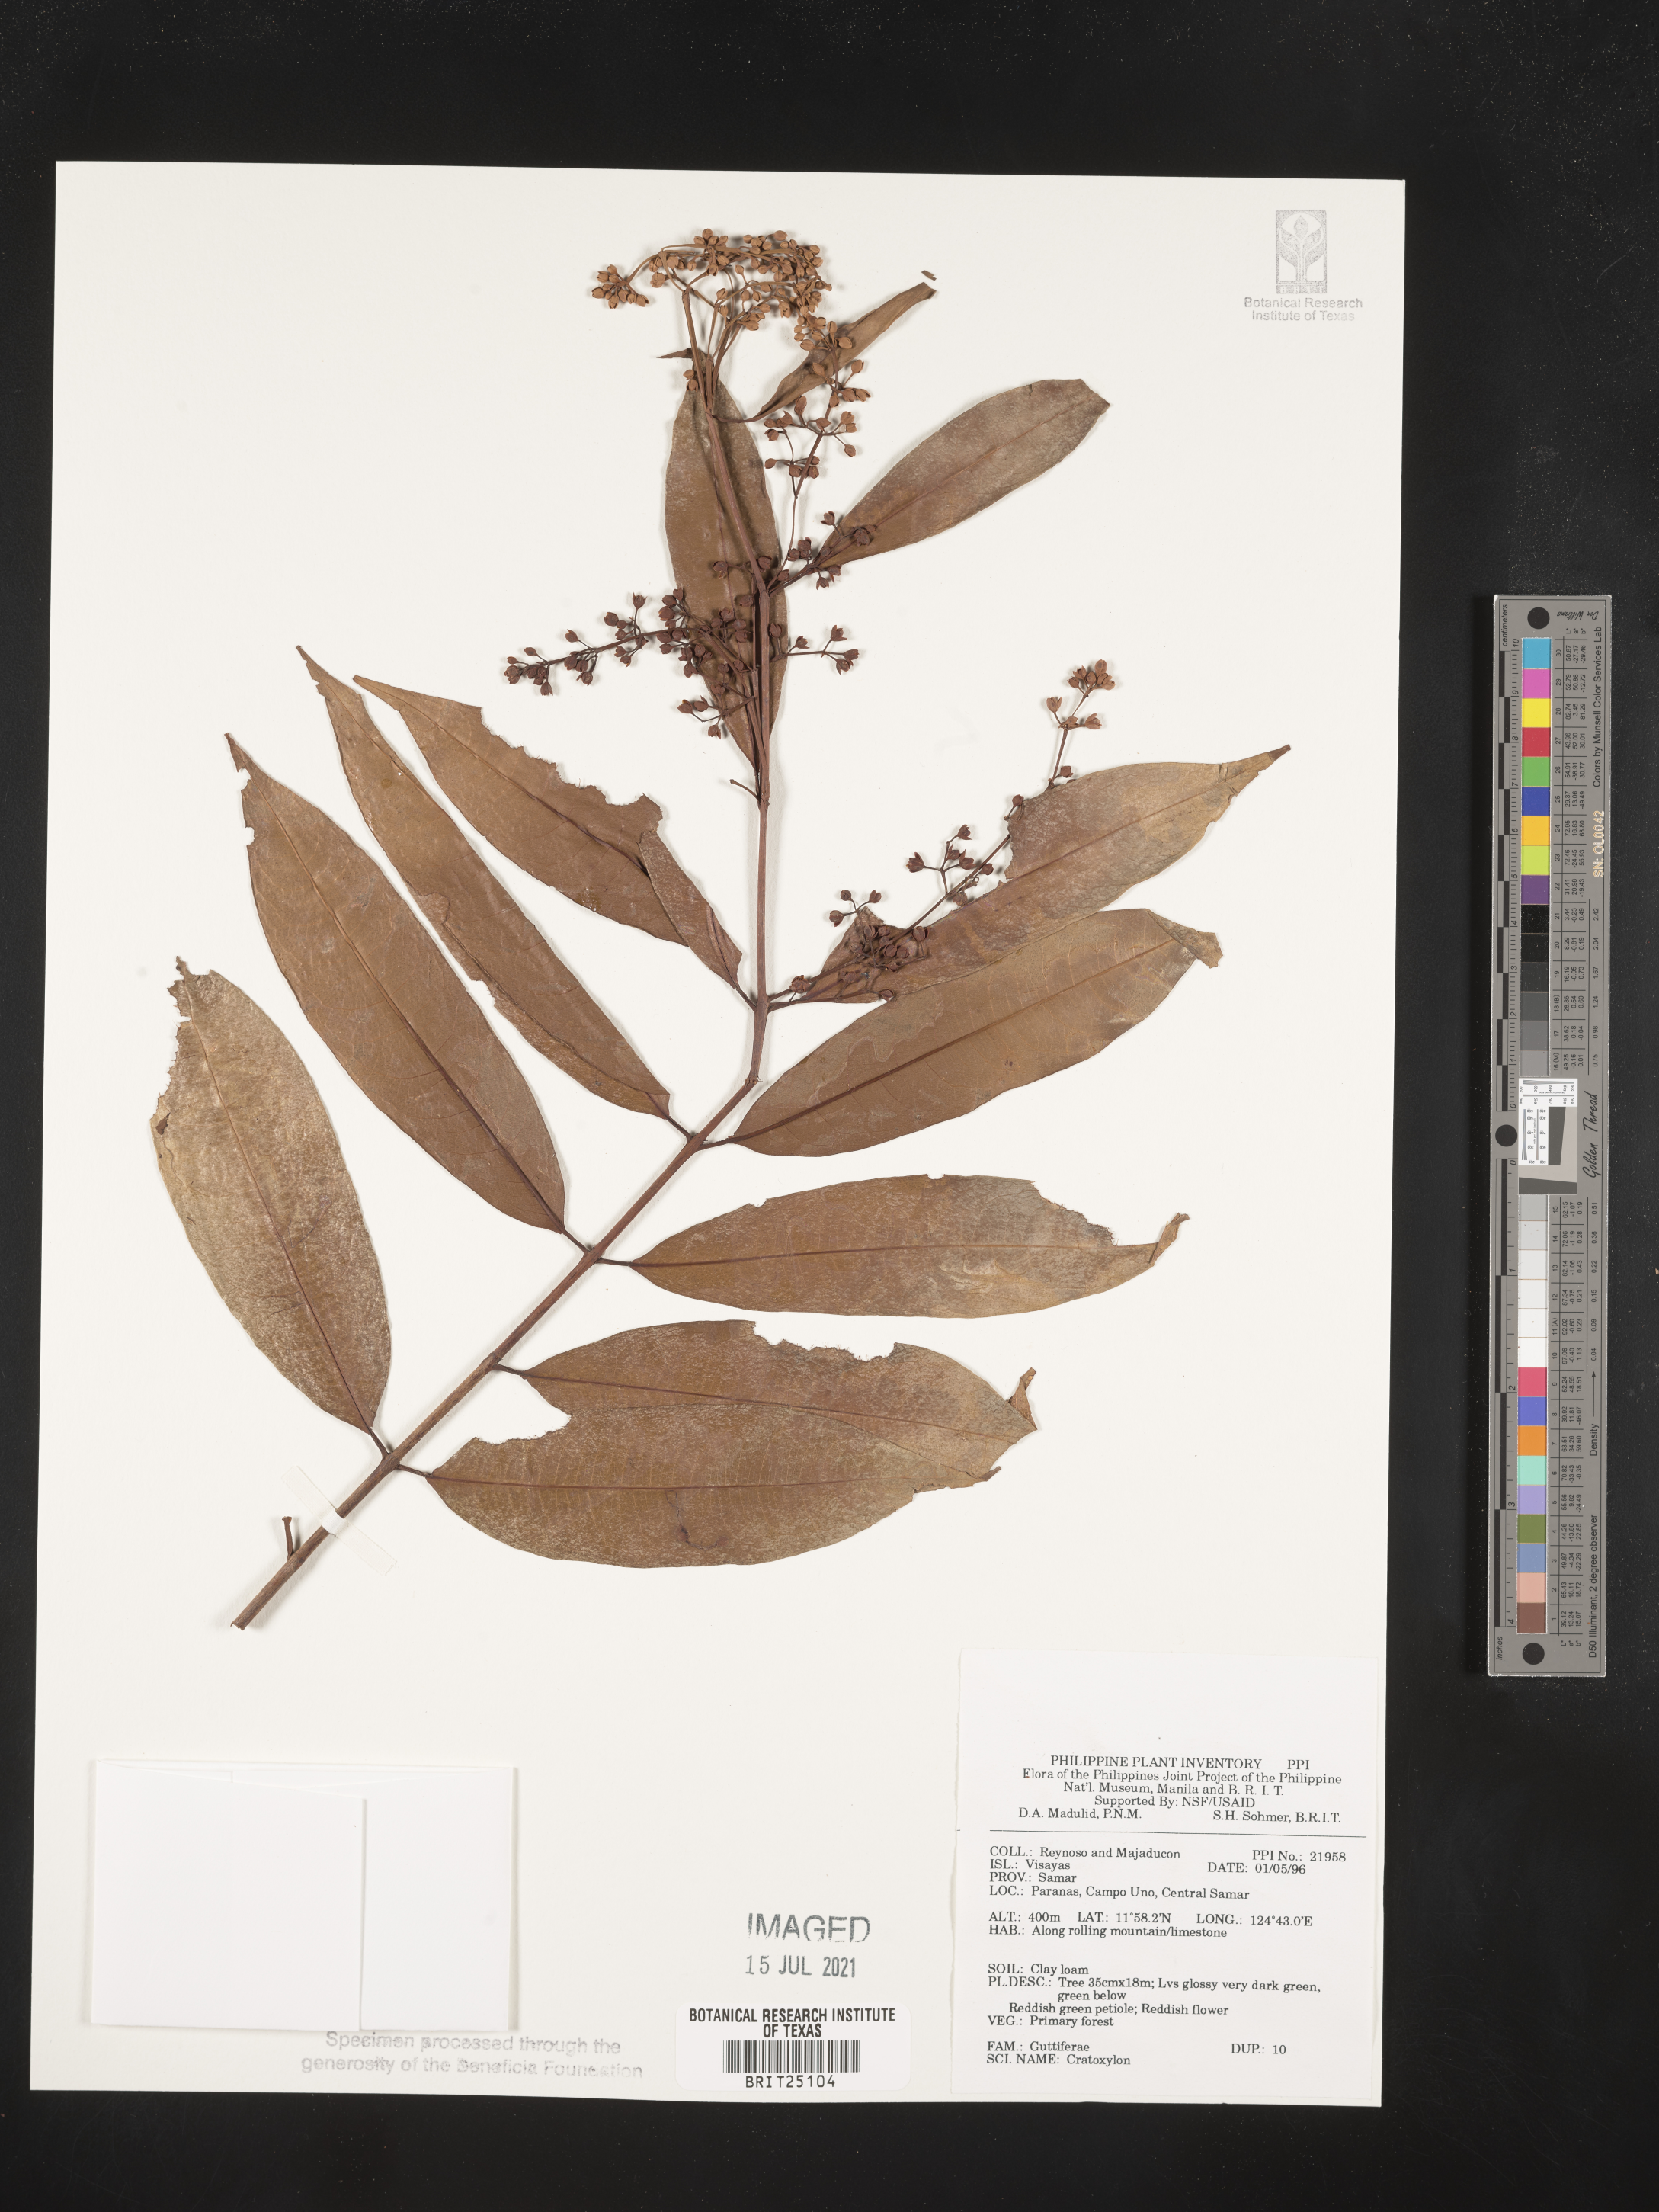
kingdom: Plantae
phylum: Tracheophyta
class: Magnoliopsida
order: Malpighiales
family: Hypericaceae
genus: Cratoxylum
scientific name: Cratoxylum
